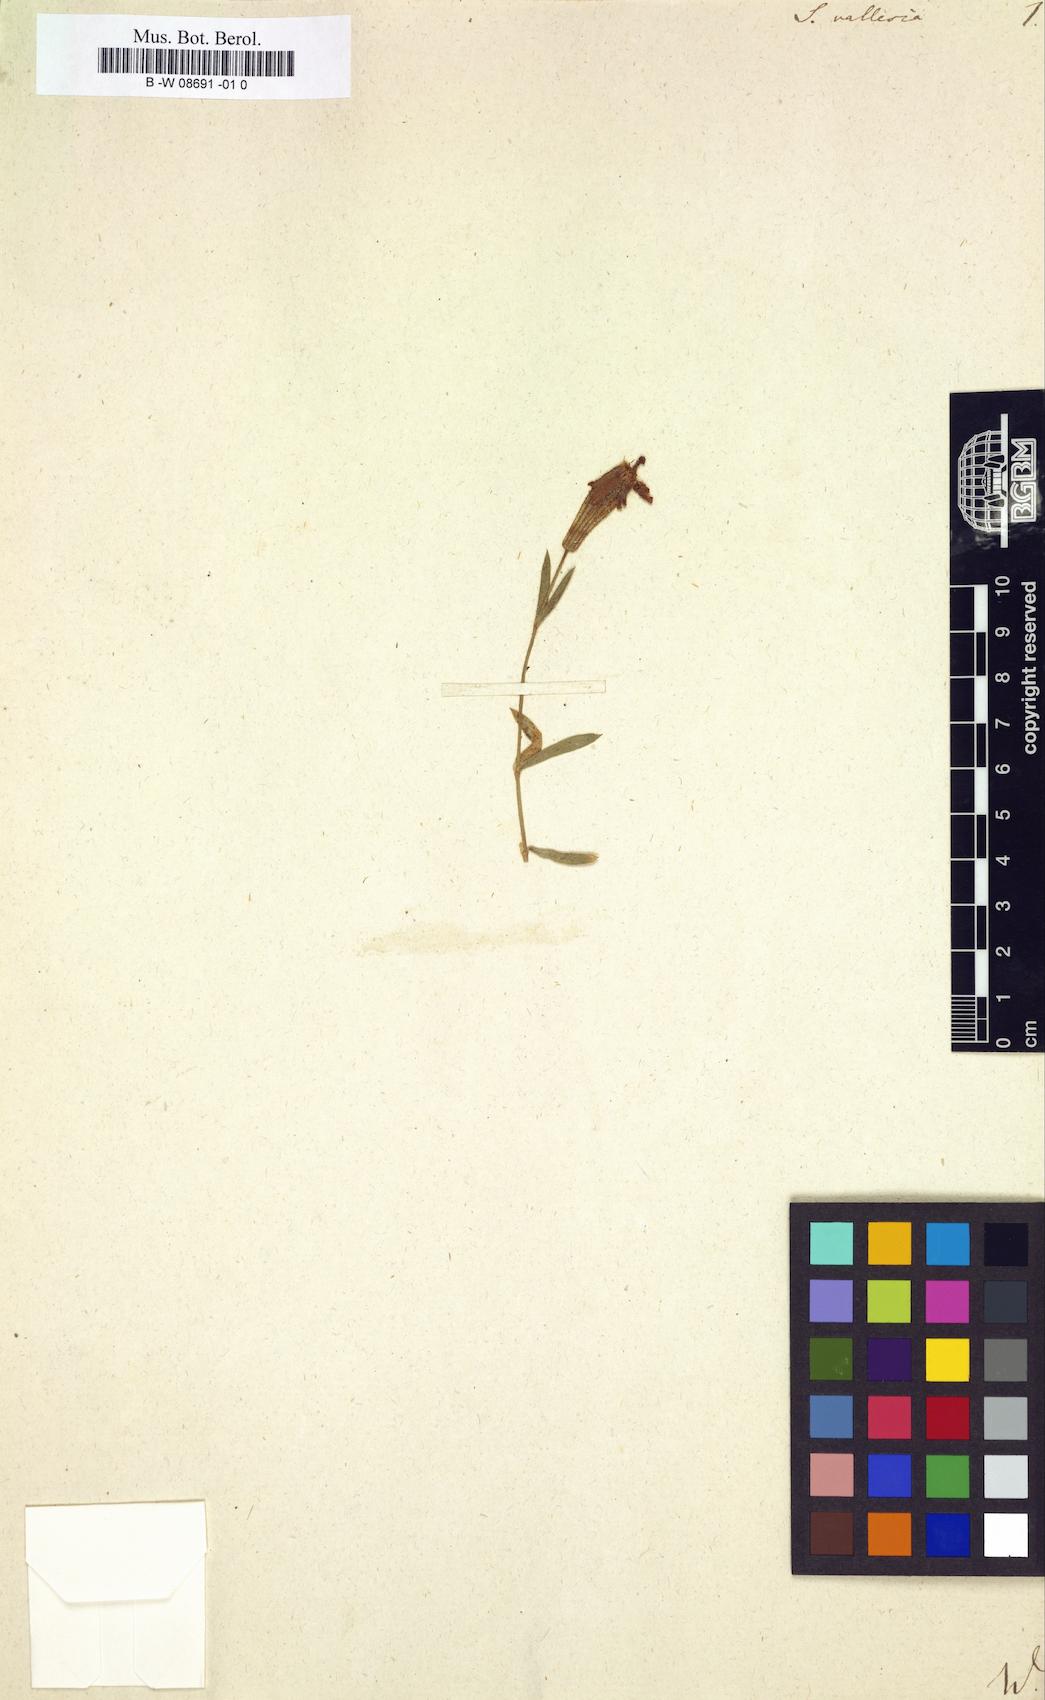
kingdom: Plantae
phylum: Tracheophyta
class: Magnoliopsida
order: Caryophyllales
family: Caryophyllaceae
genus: Silene
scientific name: Silene vallesia
